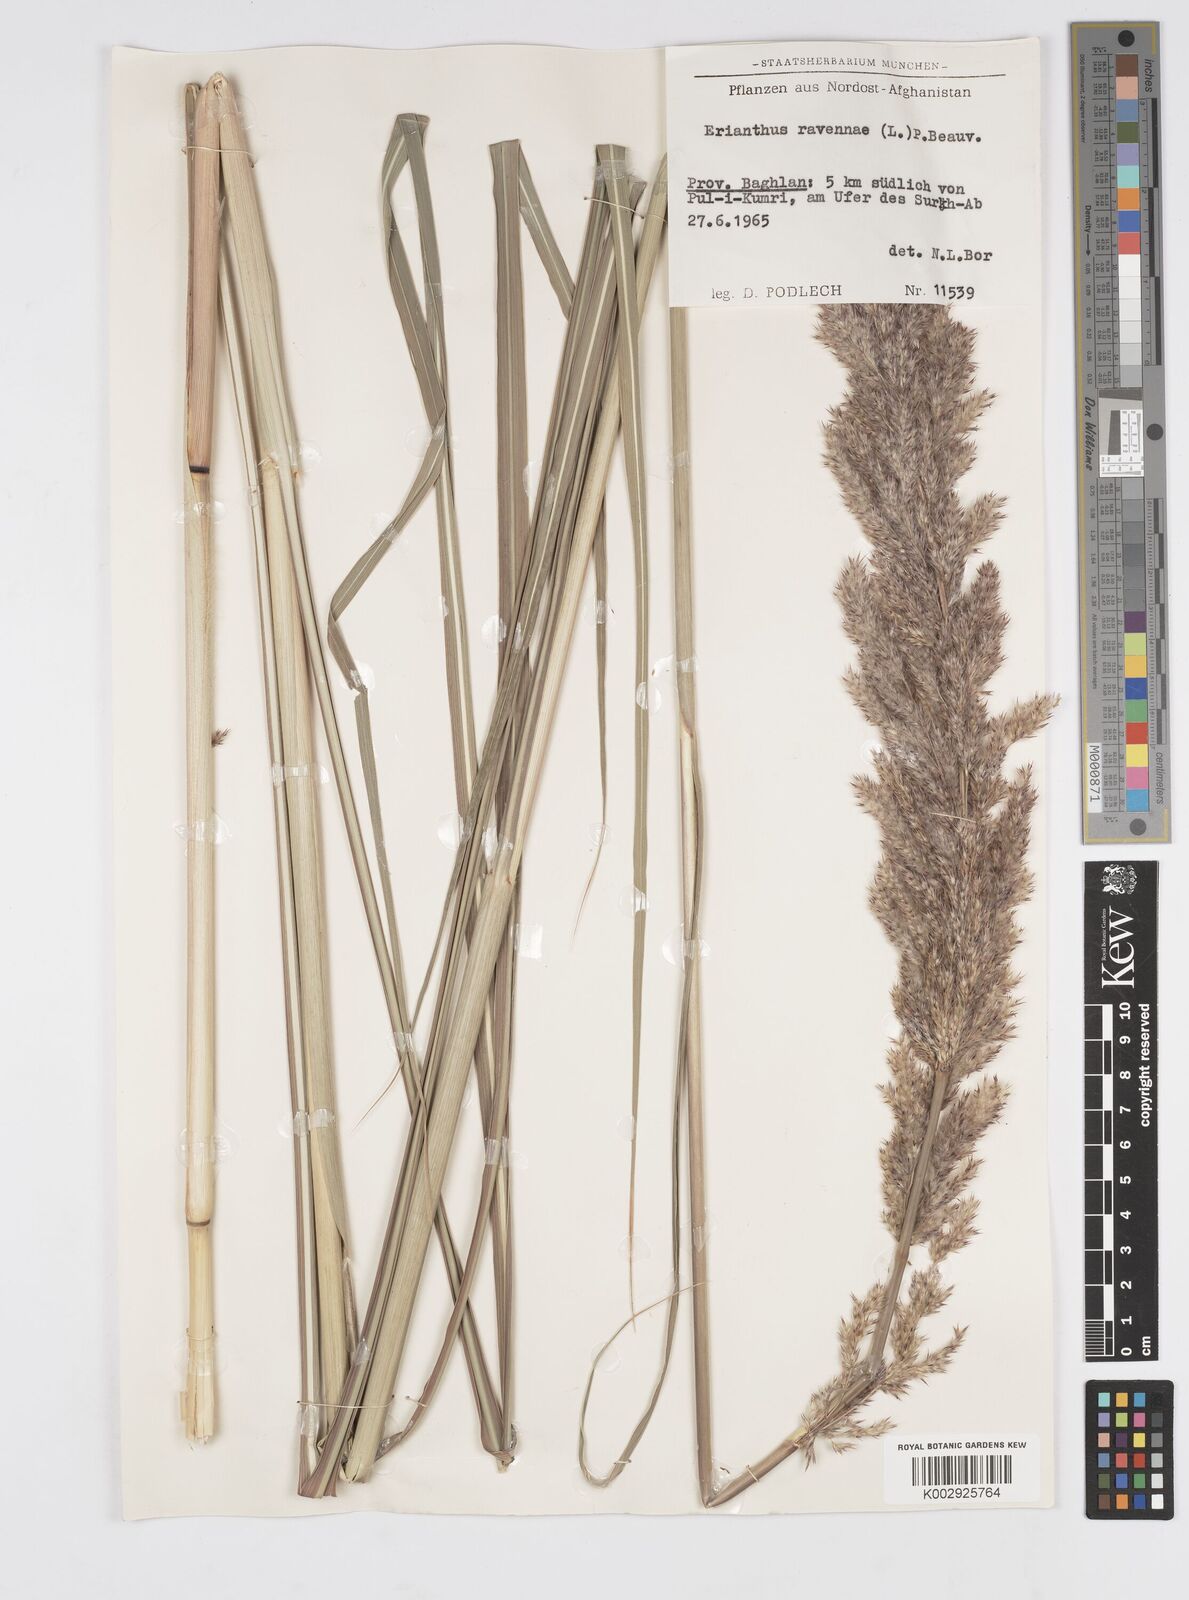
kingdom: Plantae
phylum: Tracheophyta
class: Liliopsida
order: Poales
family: Poaceae
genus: Tripidium
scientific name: Tripidium ravennae
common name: Ravenna grass
